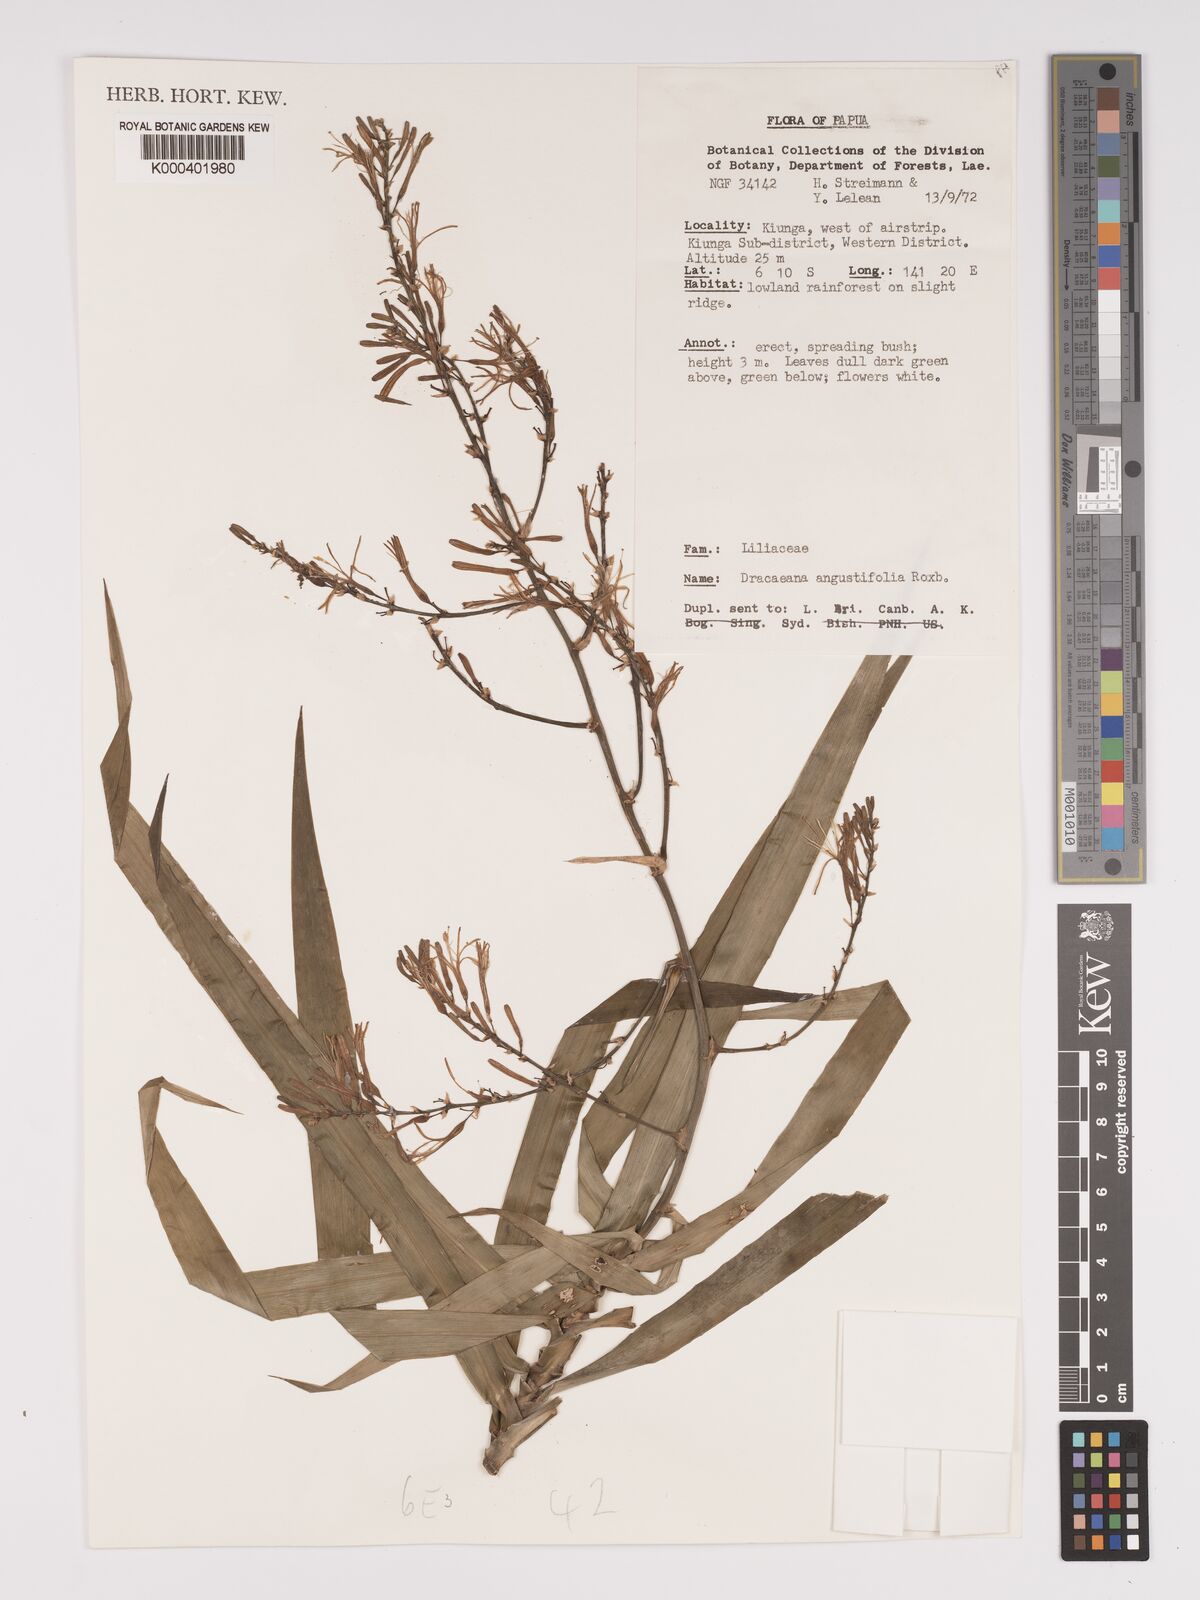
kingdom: Plantae
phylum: Tracheophyta
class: Liliopsida
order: Asparagales
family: Asparagaceae
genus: Dracaena
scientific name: Dracaena angustifolia
